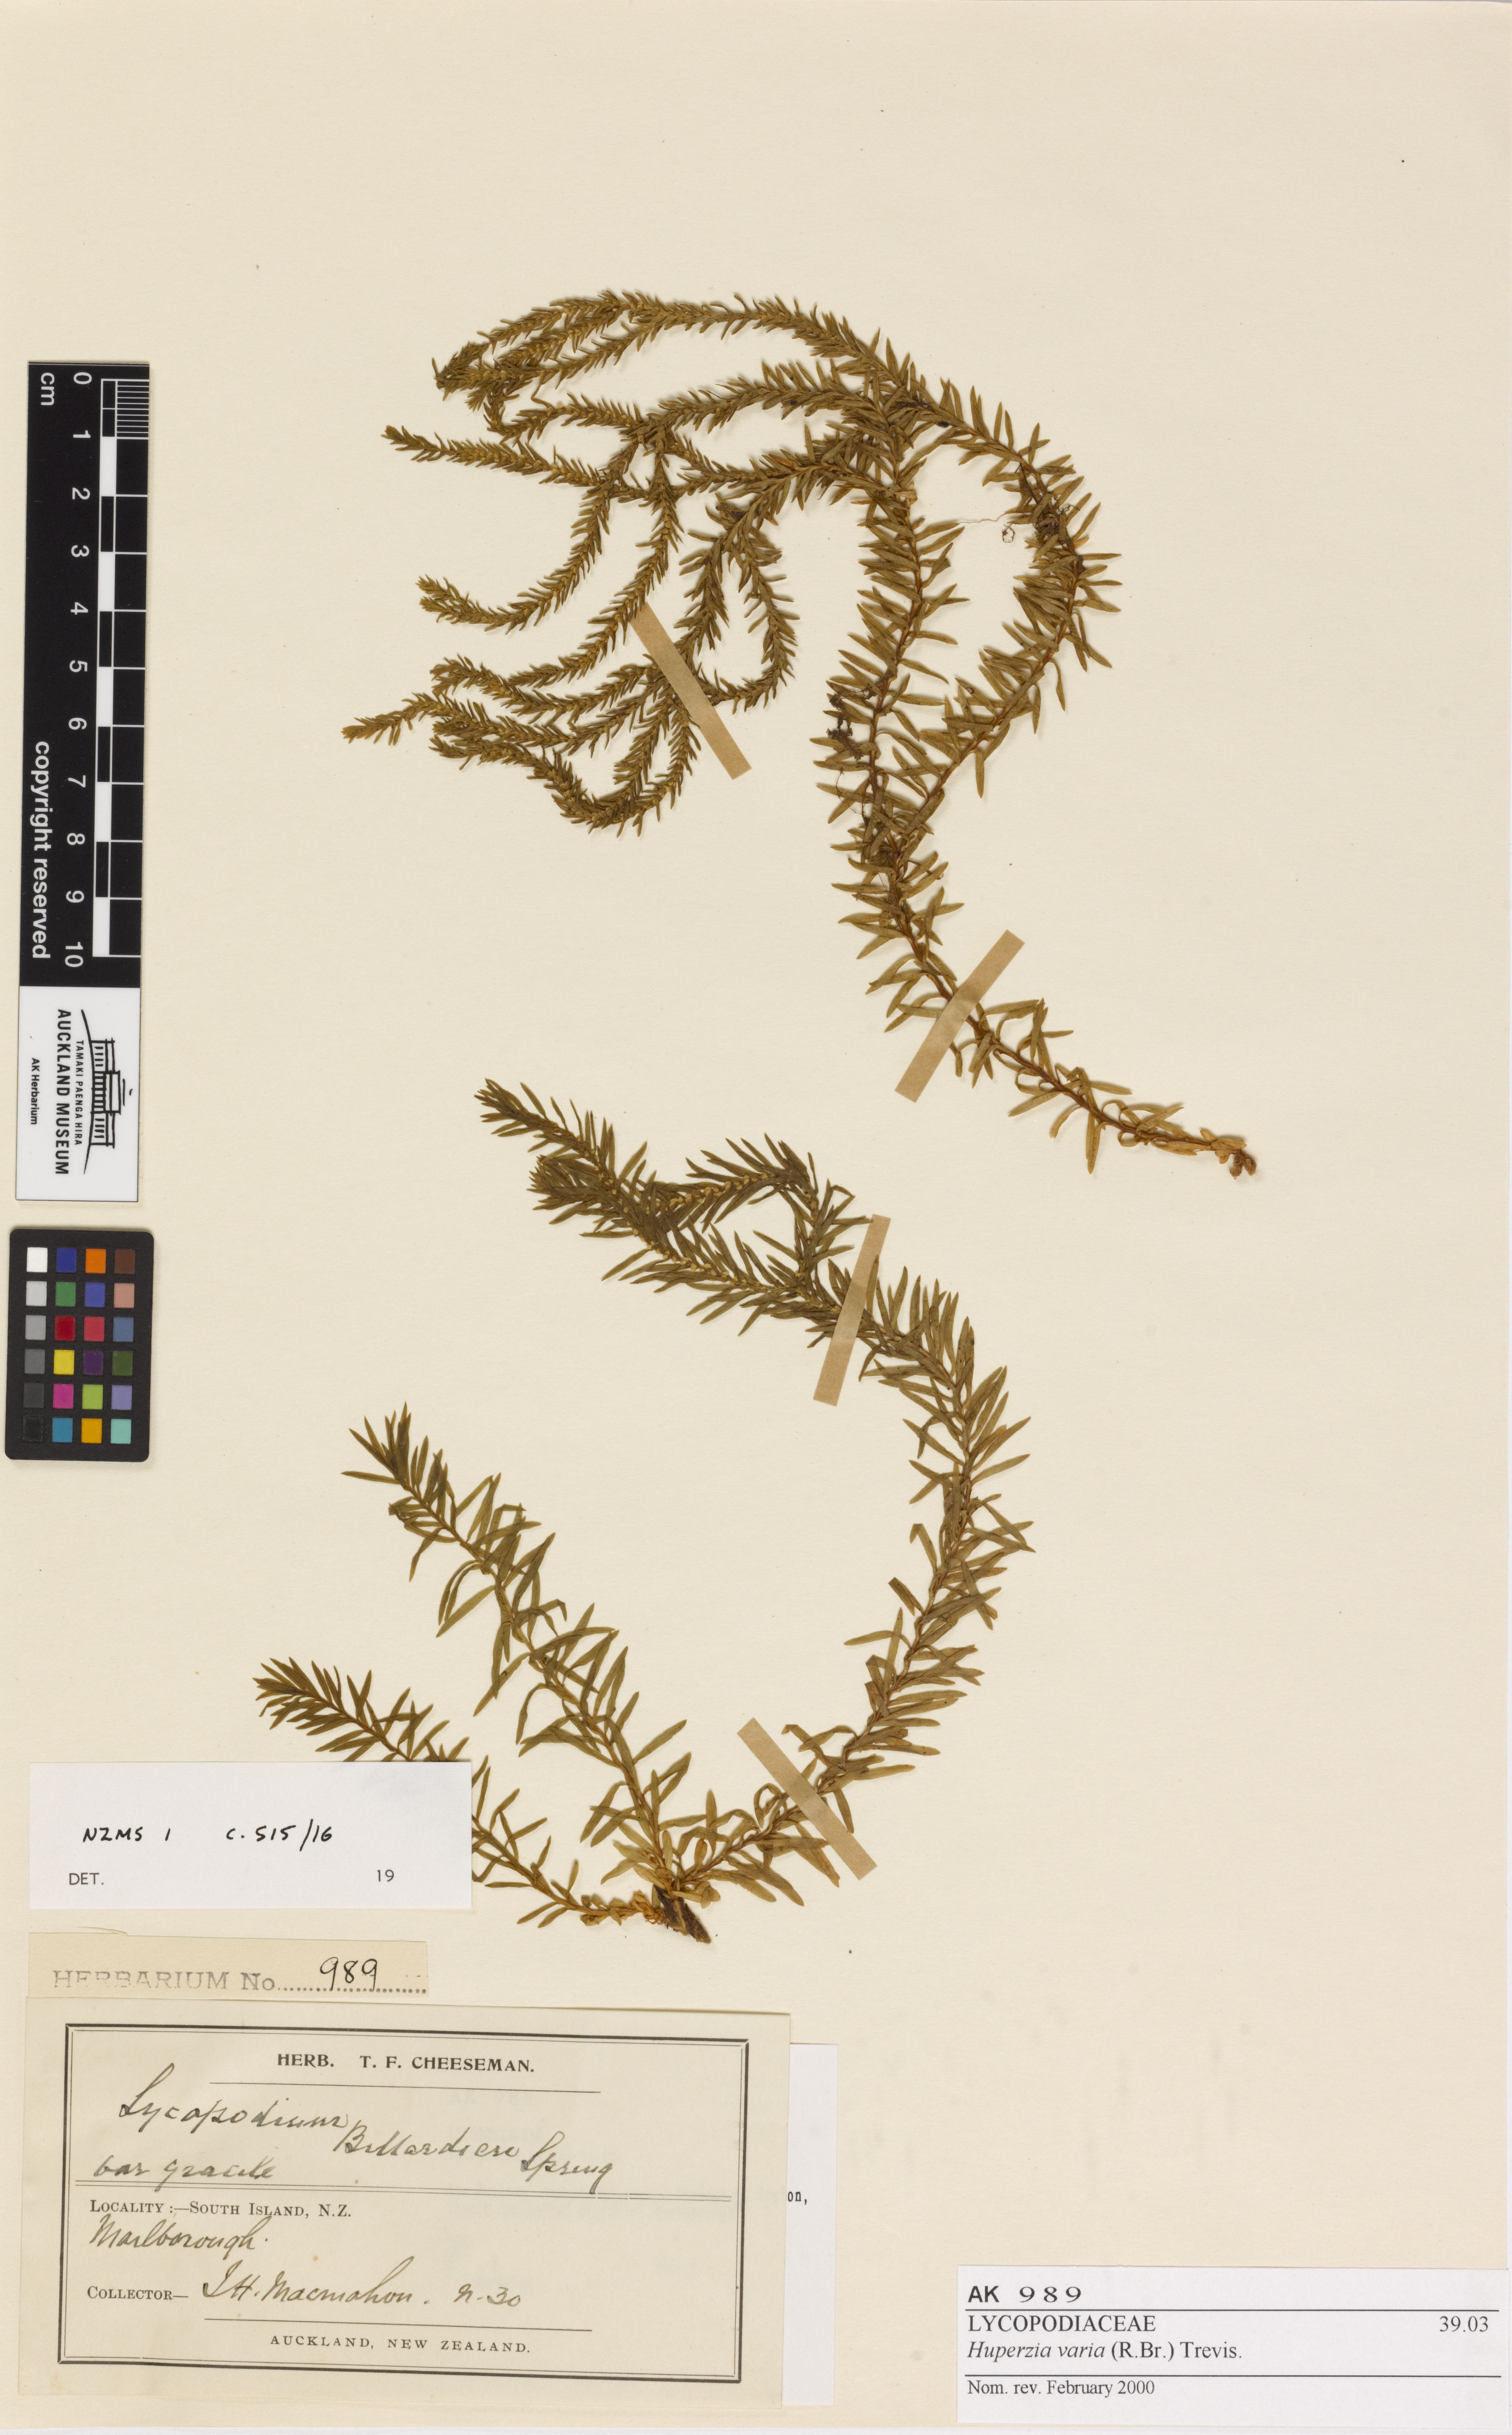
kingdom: Plantae
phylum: Tracheophyta
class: Lycopodiopsida
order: Lycopodiales
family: Lycopodiaceae
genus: Phlegmariurus
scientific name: Phlegmariurus varius
